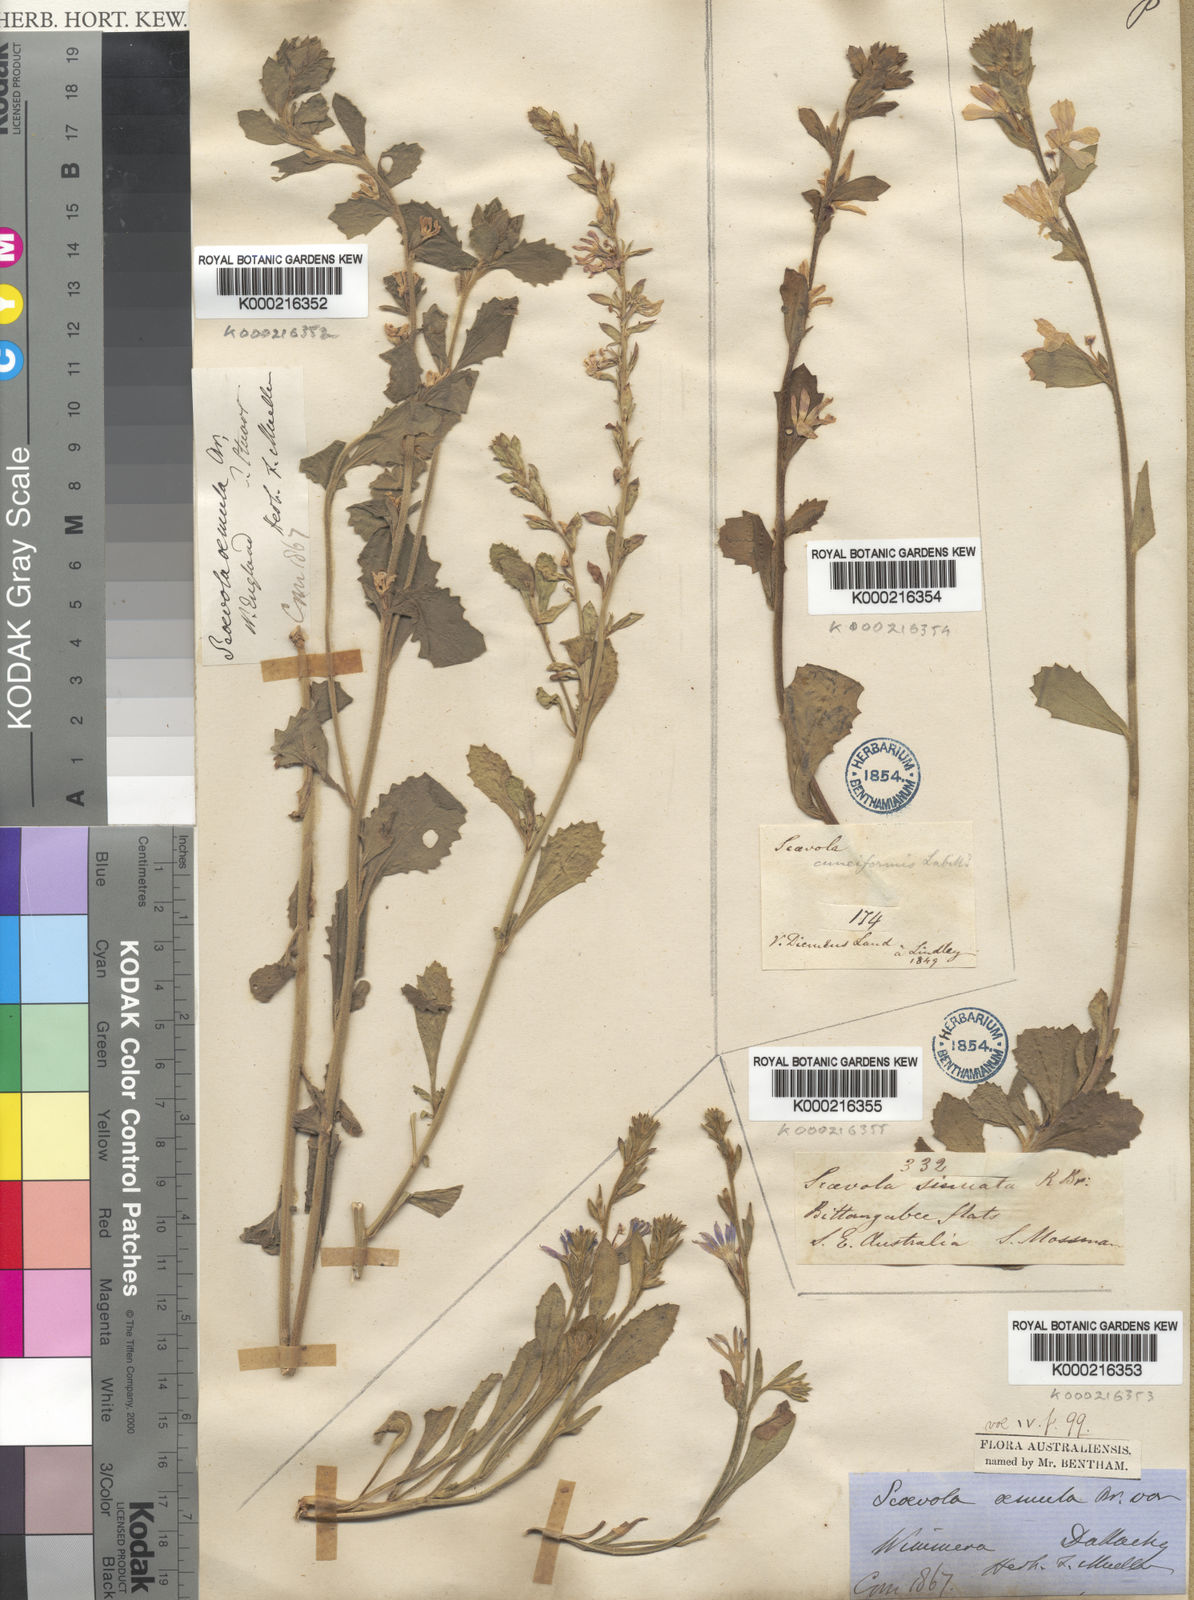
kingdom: Plantae
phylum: Tracheophyta
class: Magnoliopsida
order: Asterales
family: Goodeniaceae
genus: Scaevola
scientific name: Scaevola cuneiformis
